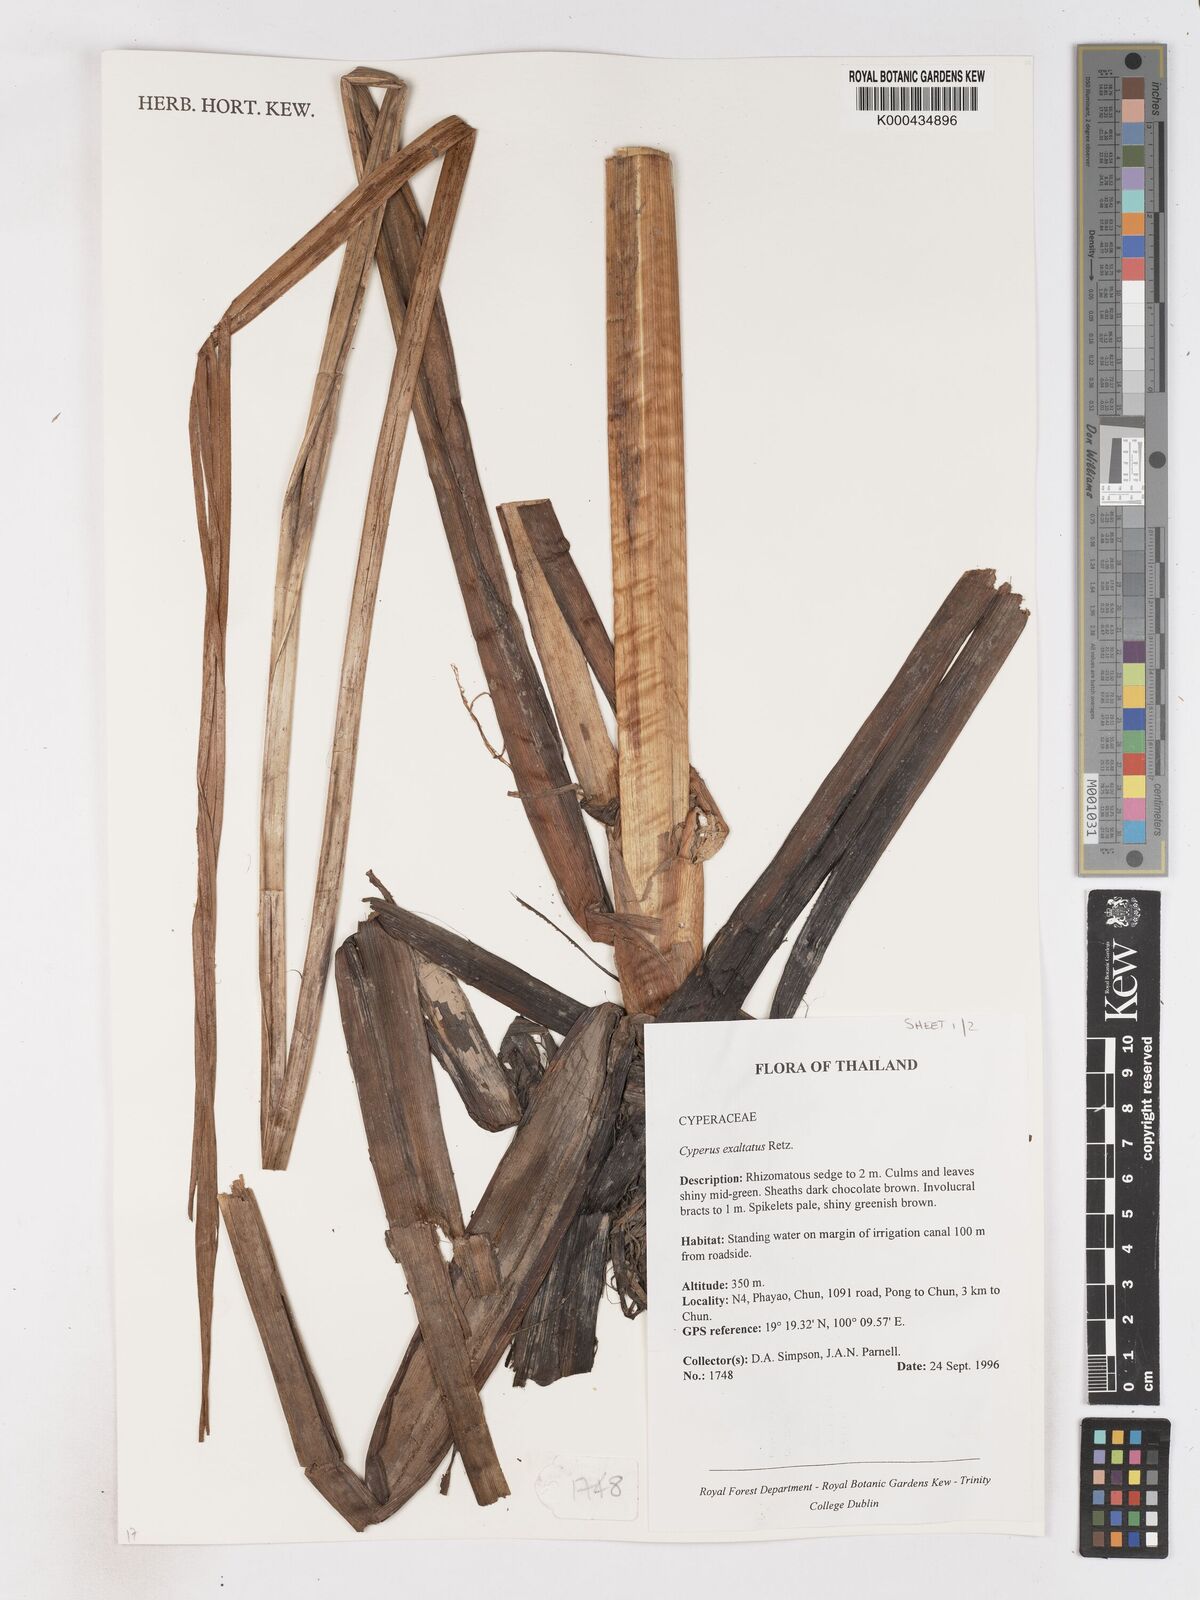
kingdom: Plantae
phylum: Tracheophyta
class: Liliopsida
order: Poales
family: Cyperaceae
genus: Cyperus
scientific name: Cyperus exaltatus
